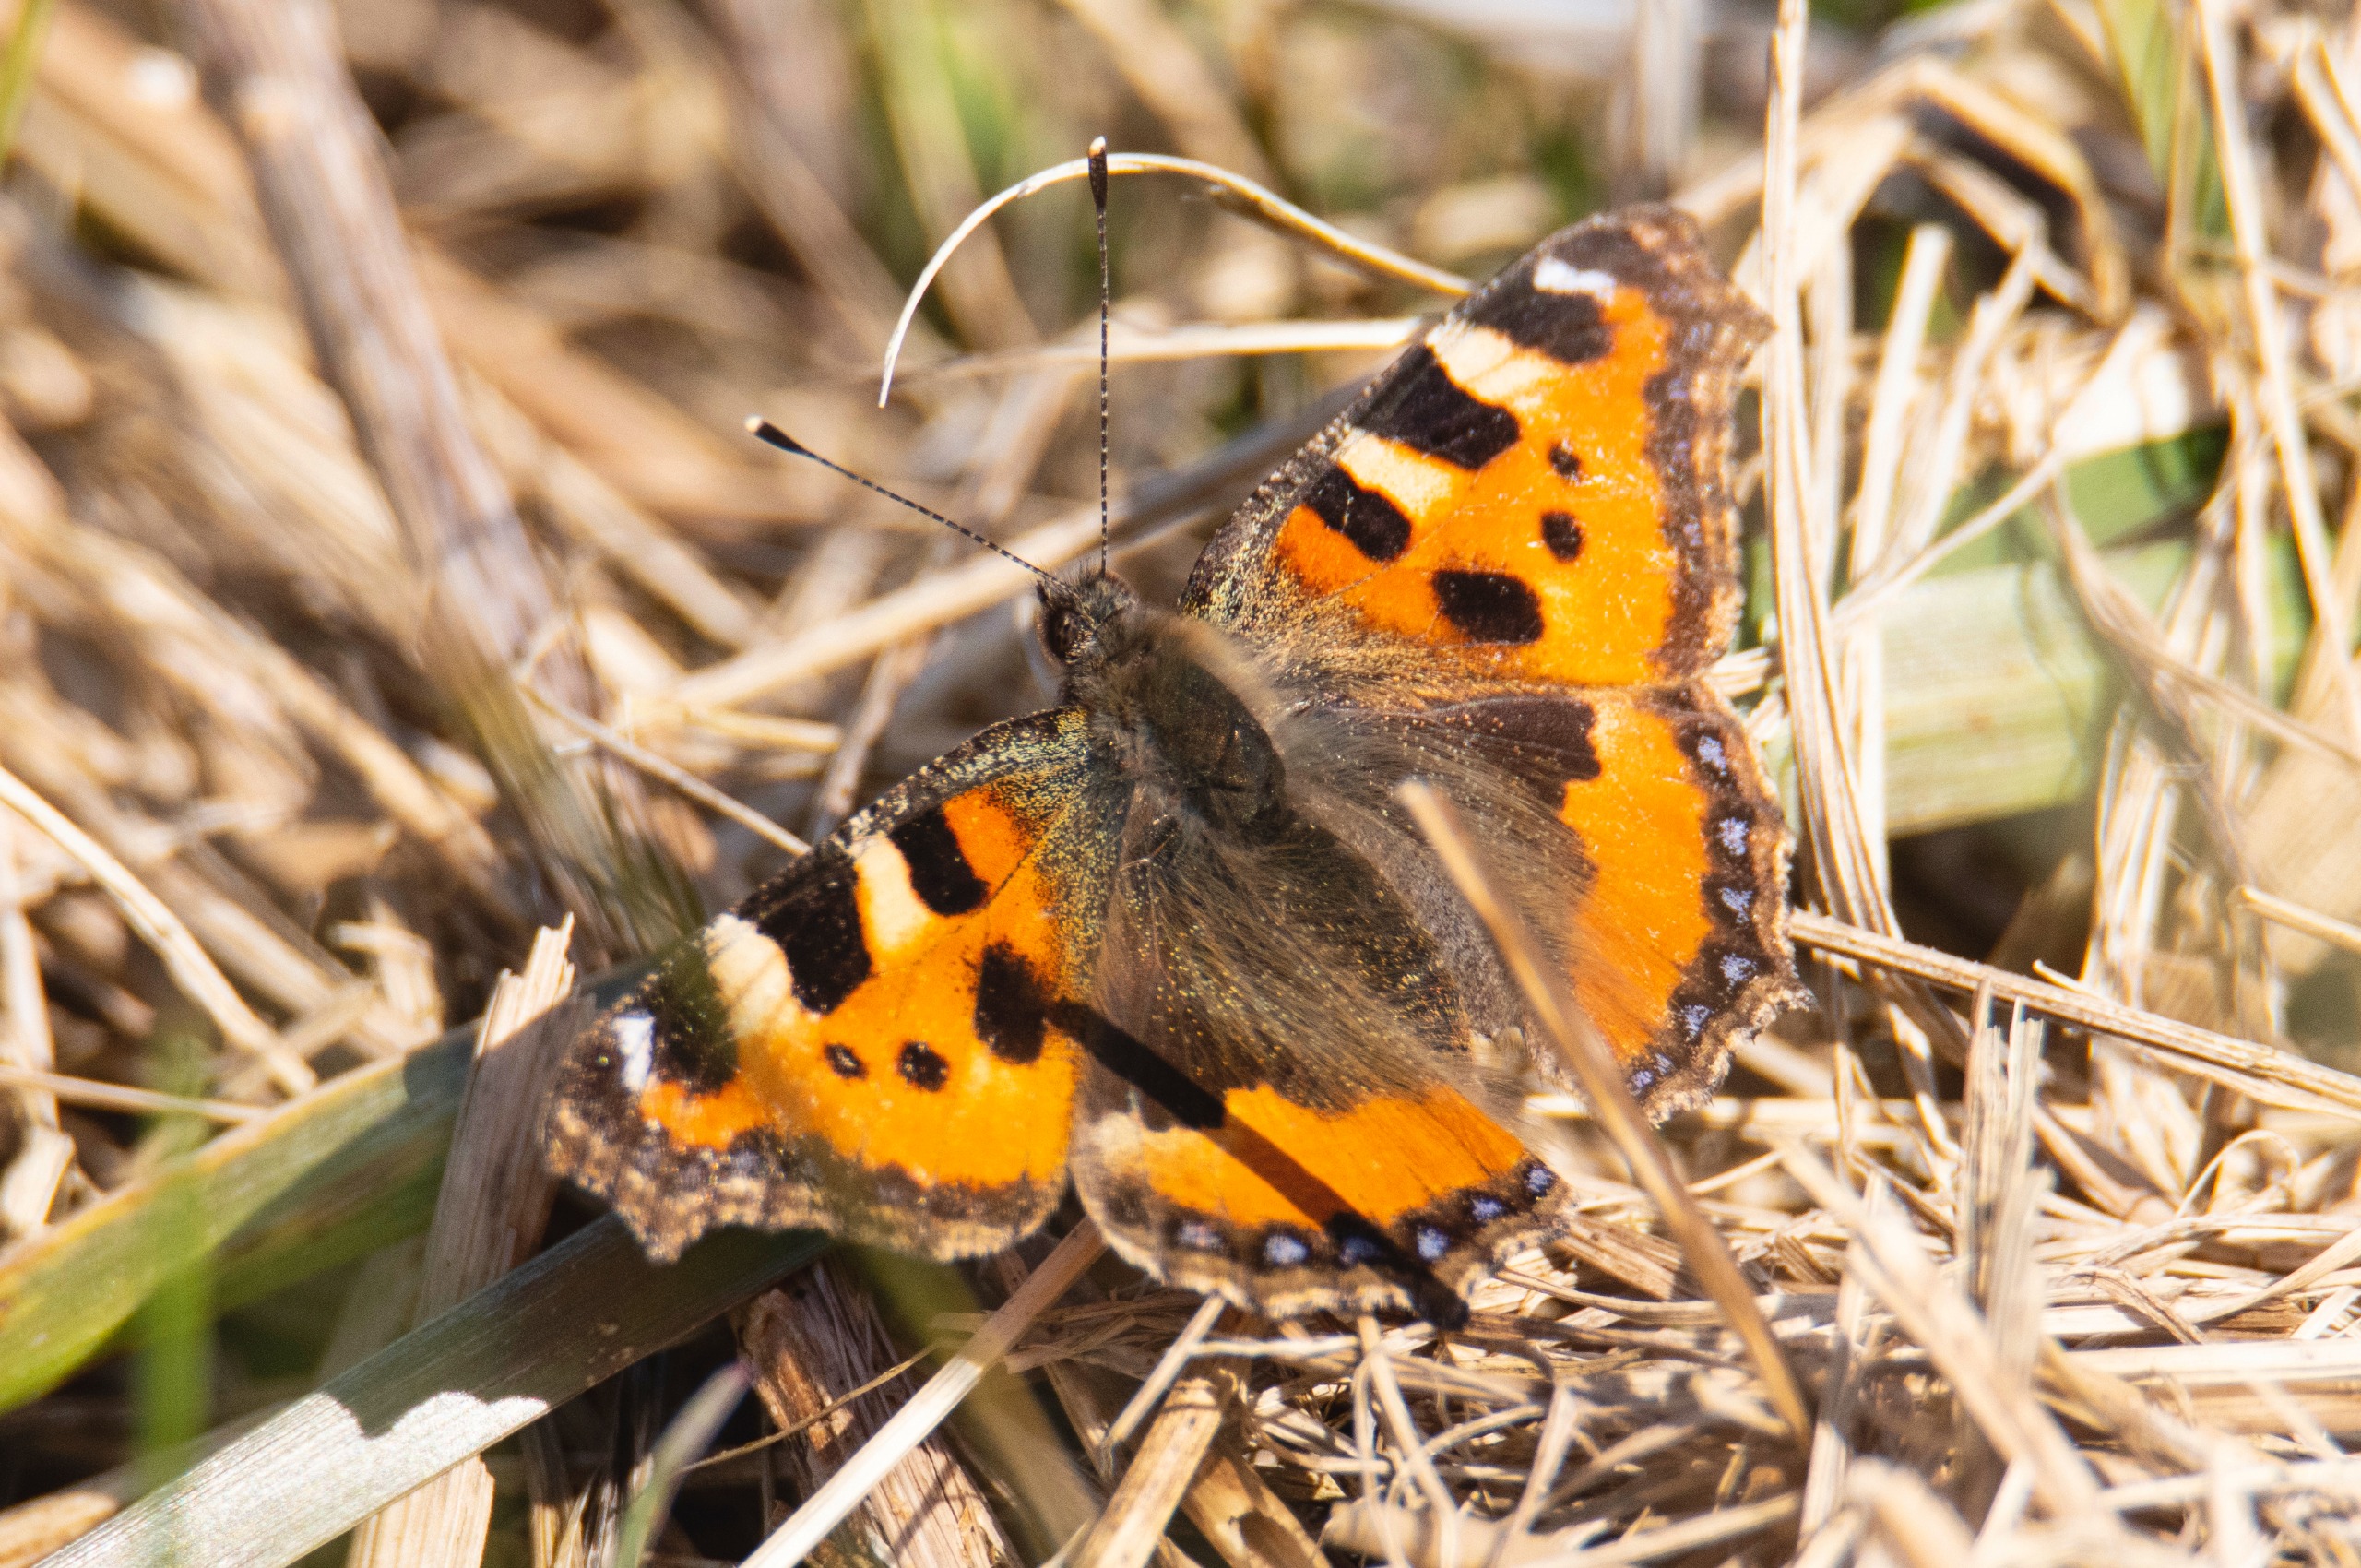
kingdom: Animalia
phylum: Arthropoda
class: Insecta
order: Lepidoptera
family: Nymphalidae
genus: Aglais
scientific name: Aglais urticae
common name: Nældens takvinge
